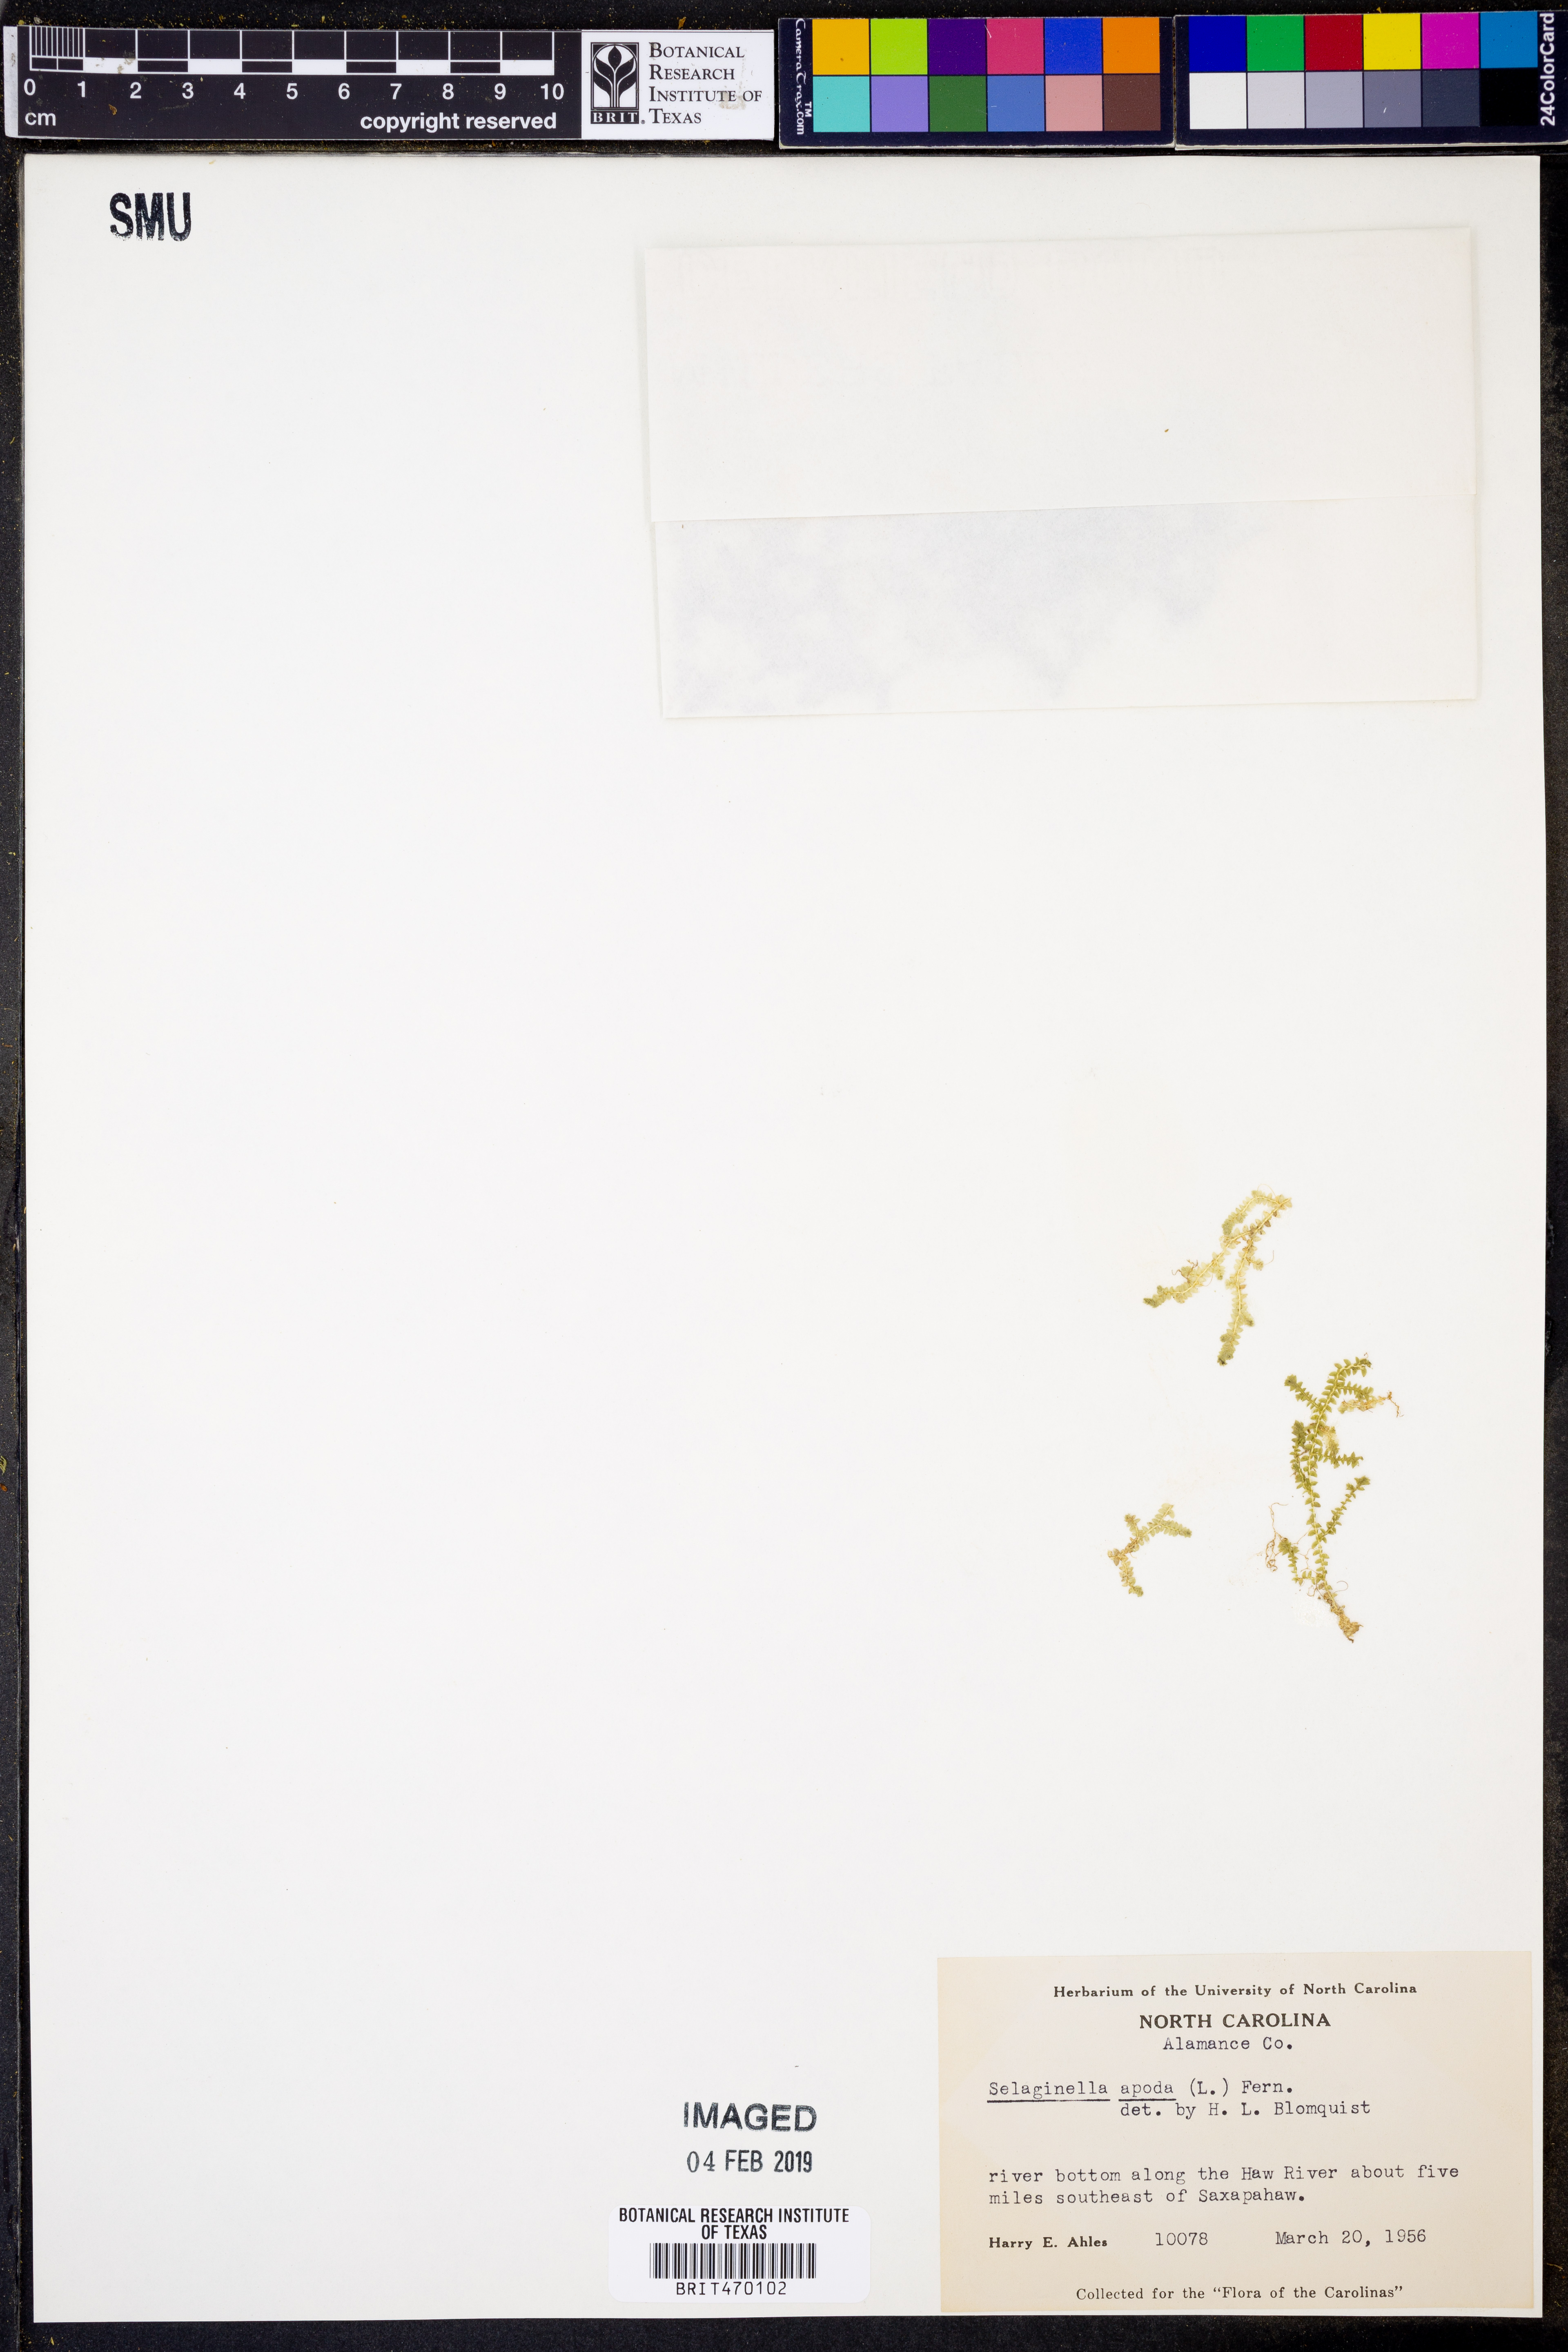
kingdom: Plantae
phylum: Tracheophyta
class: Lycopodiopsida
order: Selaginellales
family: Selaginellaceae
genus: Selaginella
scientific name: Selaginella apoda
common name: Creeping spikemoss
